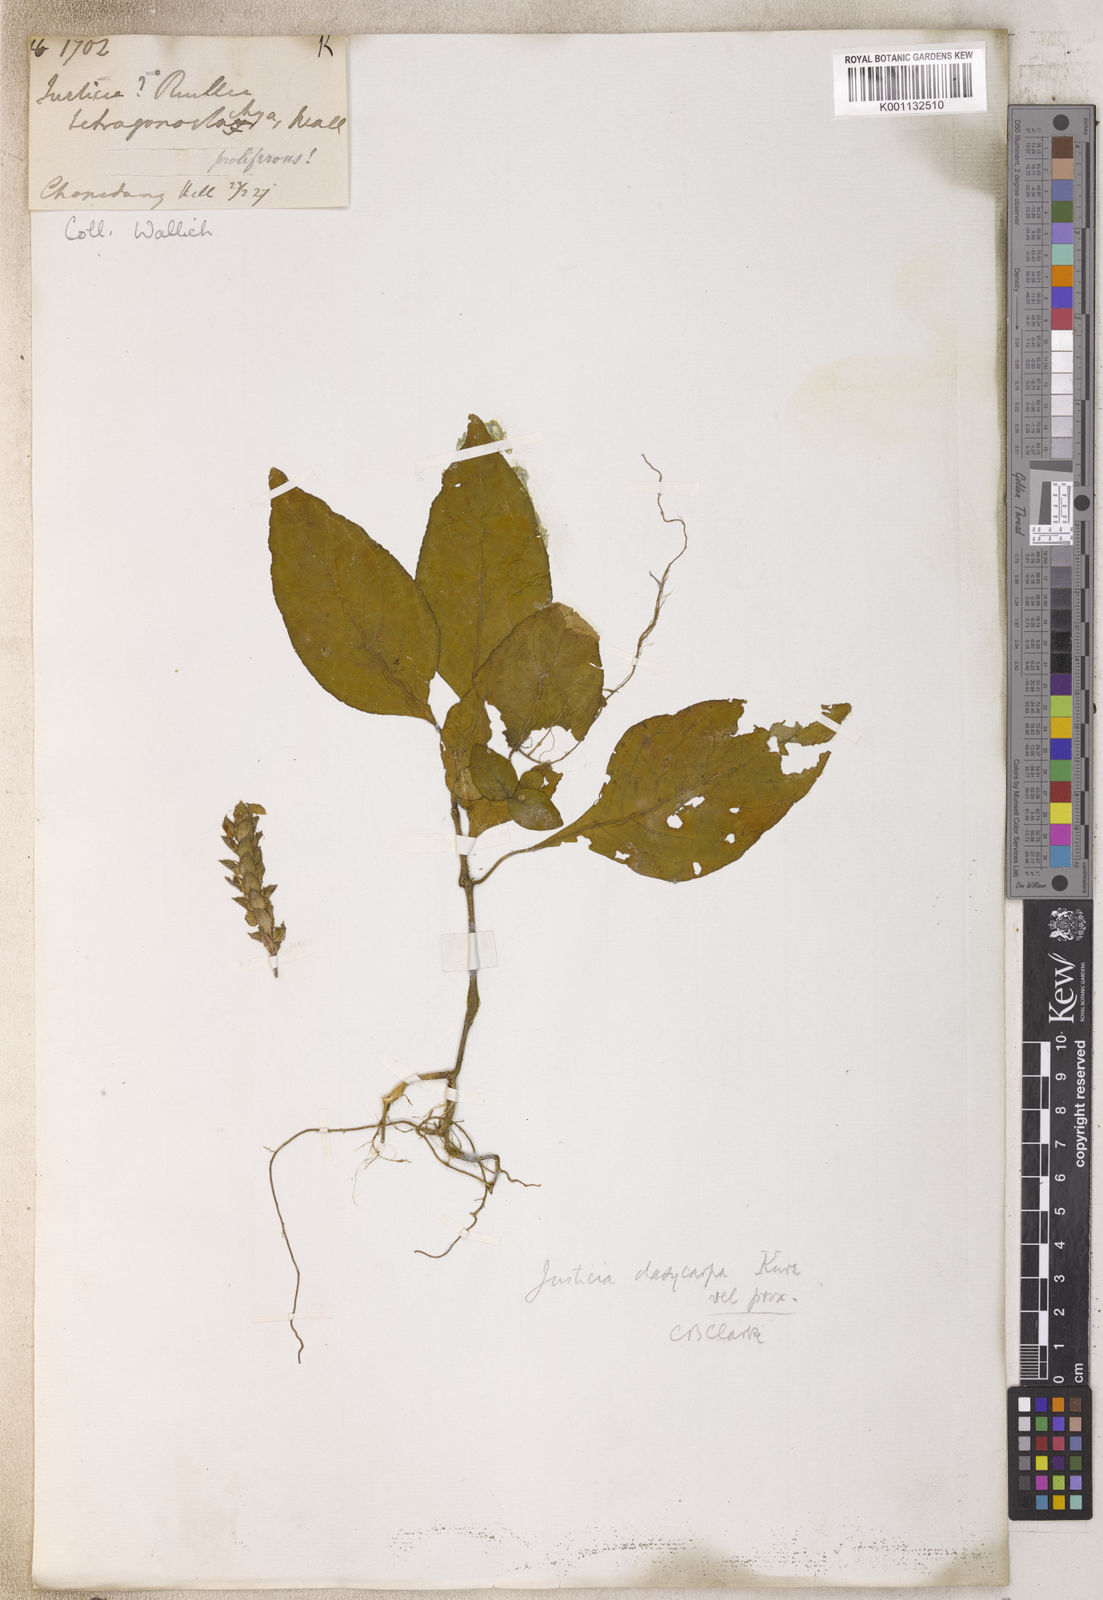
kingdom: Plantae
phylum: Tracheophyta
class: Magnoliopsida
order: Lamiales
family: Acanthaceae
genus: Justicia
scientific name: Justicia
